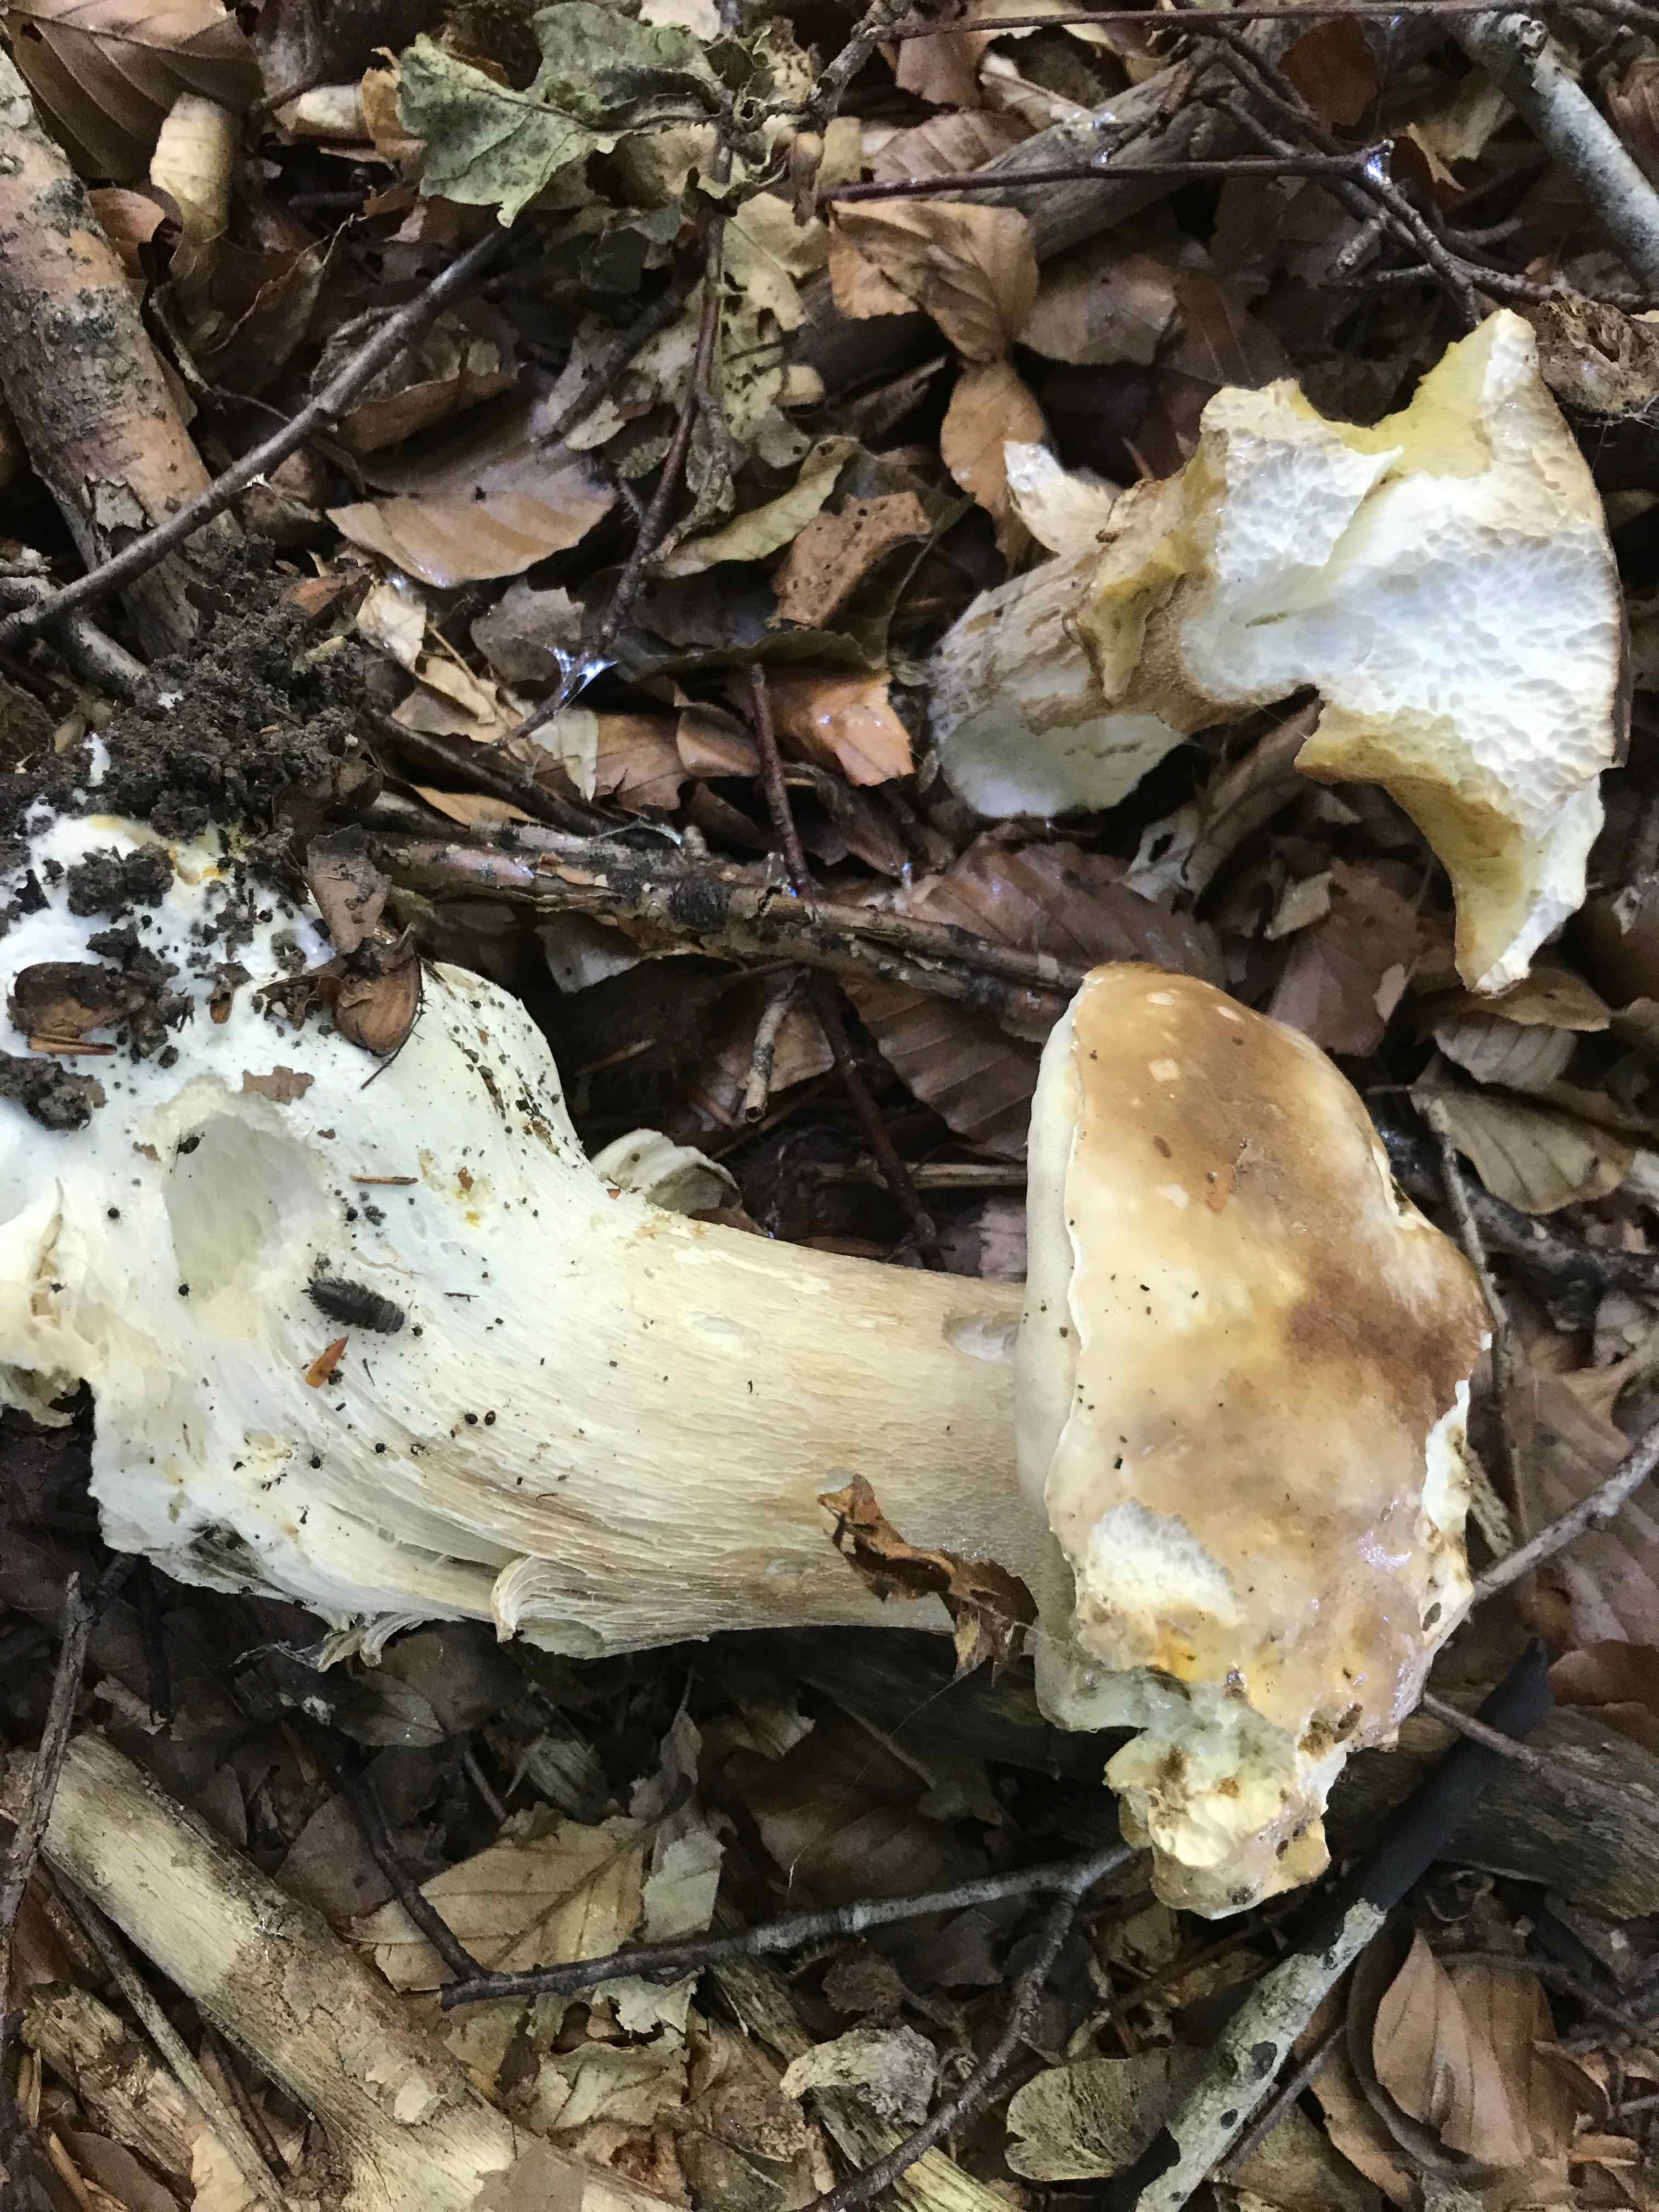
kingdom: Fungi
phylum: Basidiomycota
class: Agaricomycetes
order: Boletales
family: Boletaceae
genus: Boletus
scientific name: Boletus reticulatus
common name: sommer-rørhat
